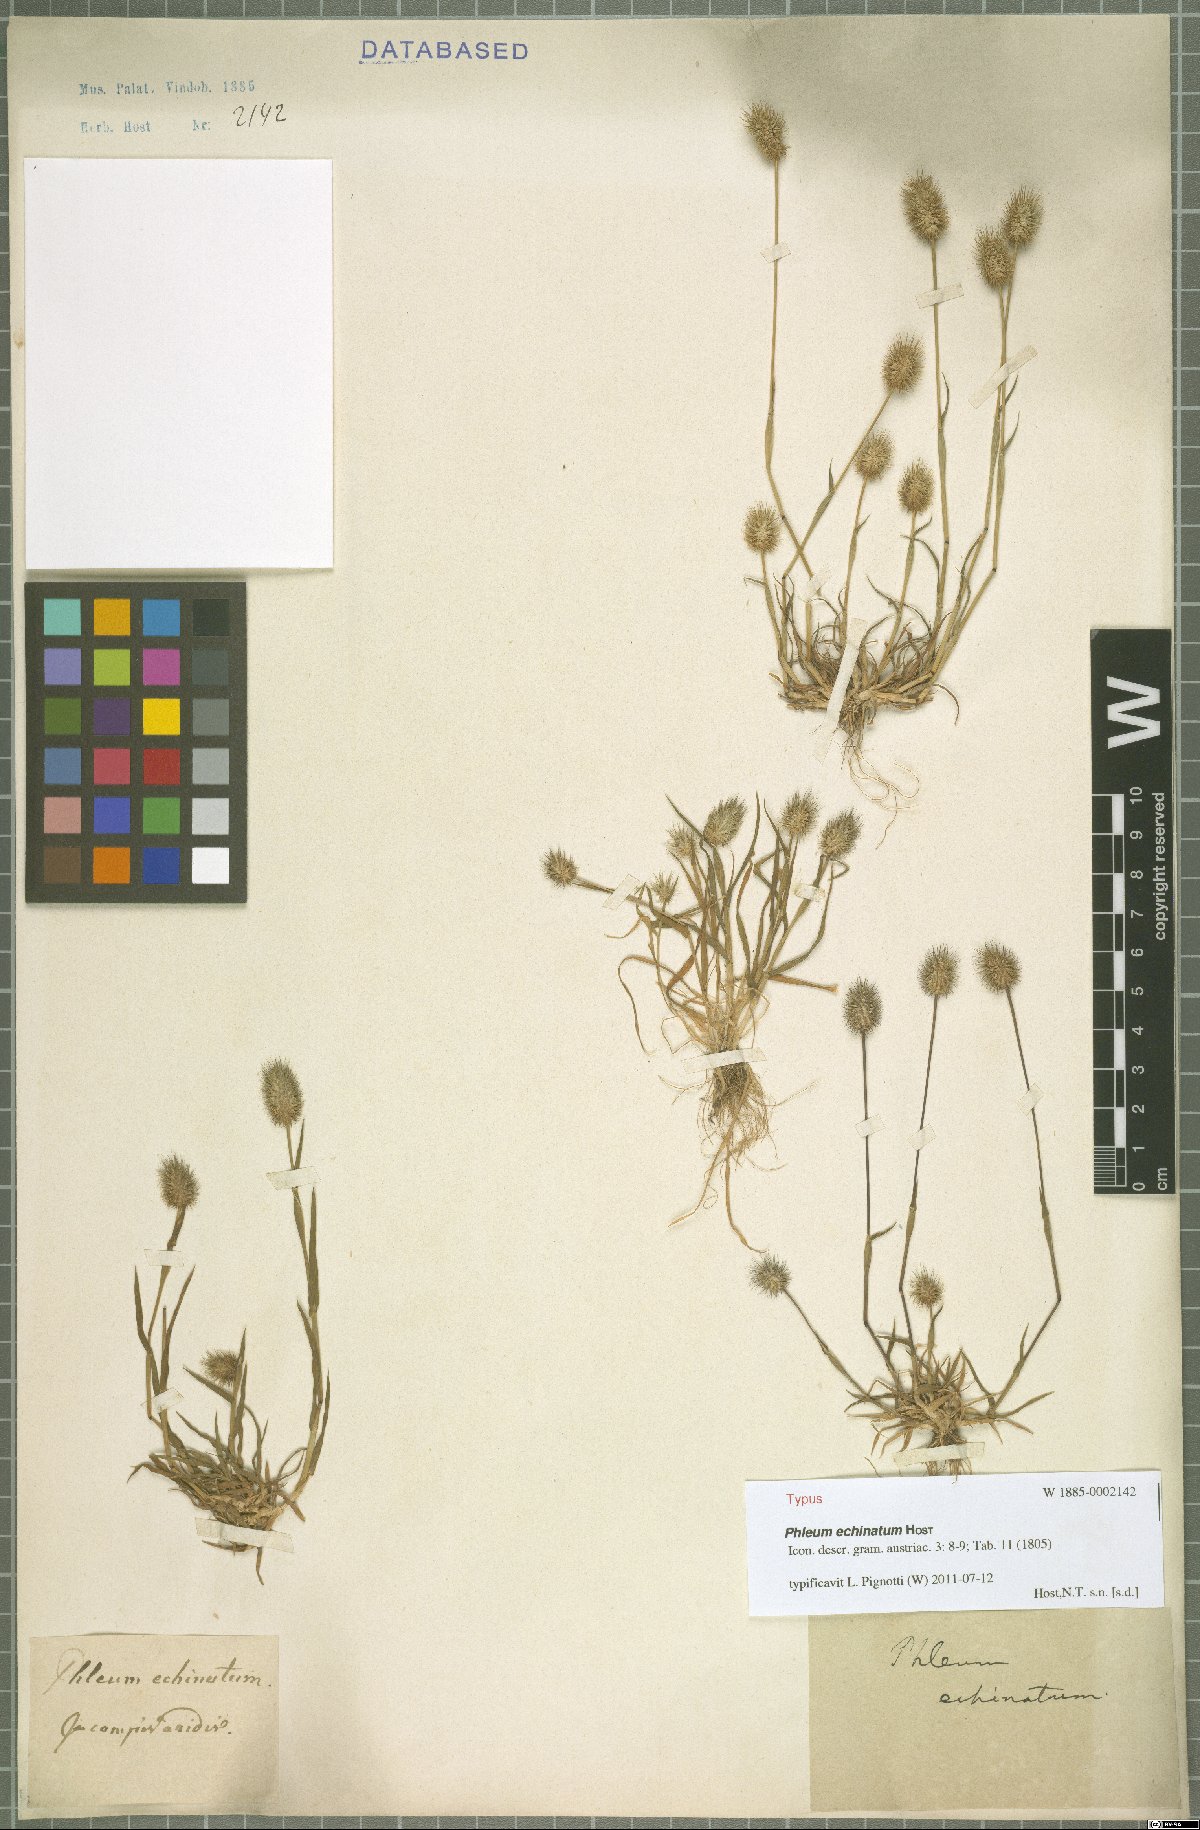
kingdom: Plantae
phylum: Tracheophyta
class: Liliopsida
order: Poales
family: Poaceae
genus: Phleum
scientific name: Phleum echinatum
